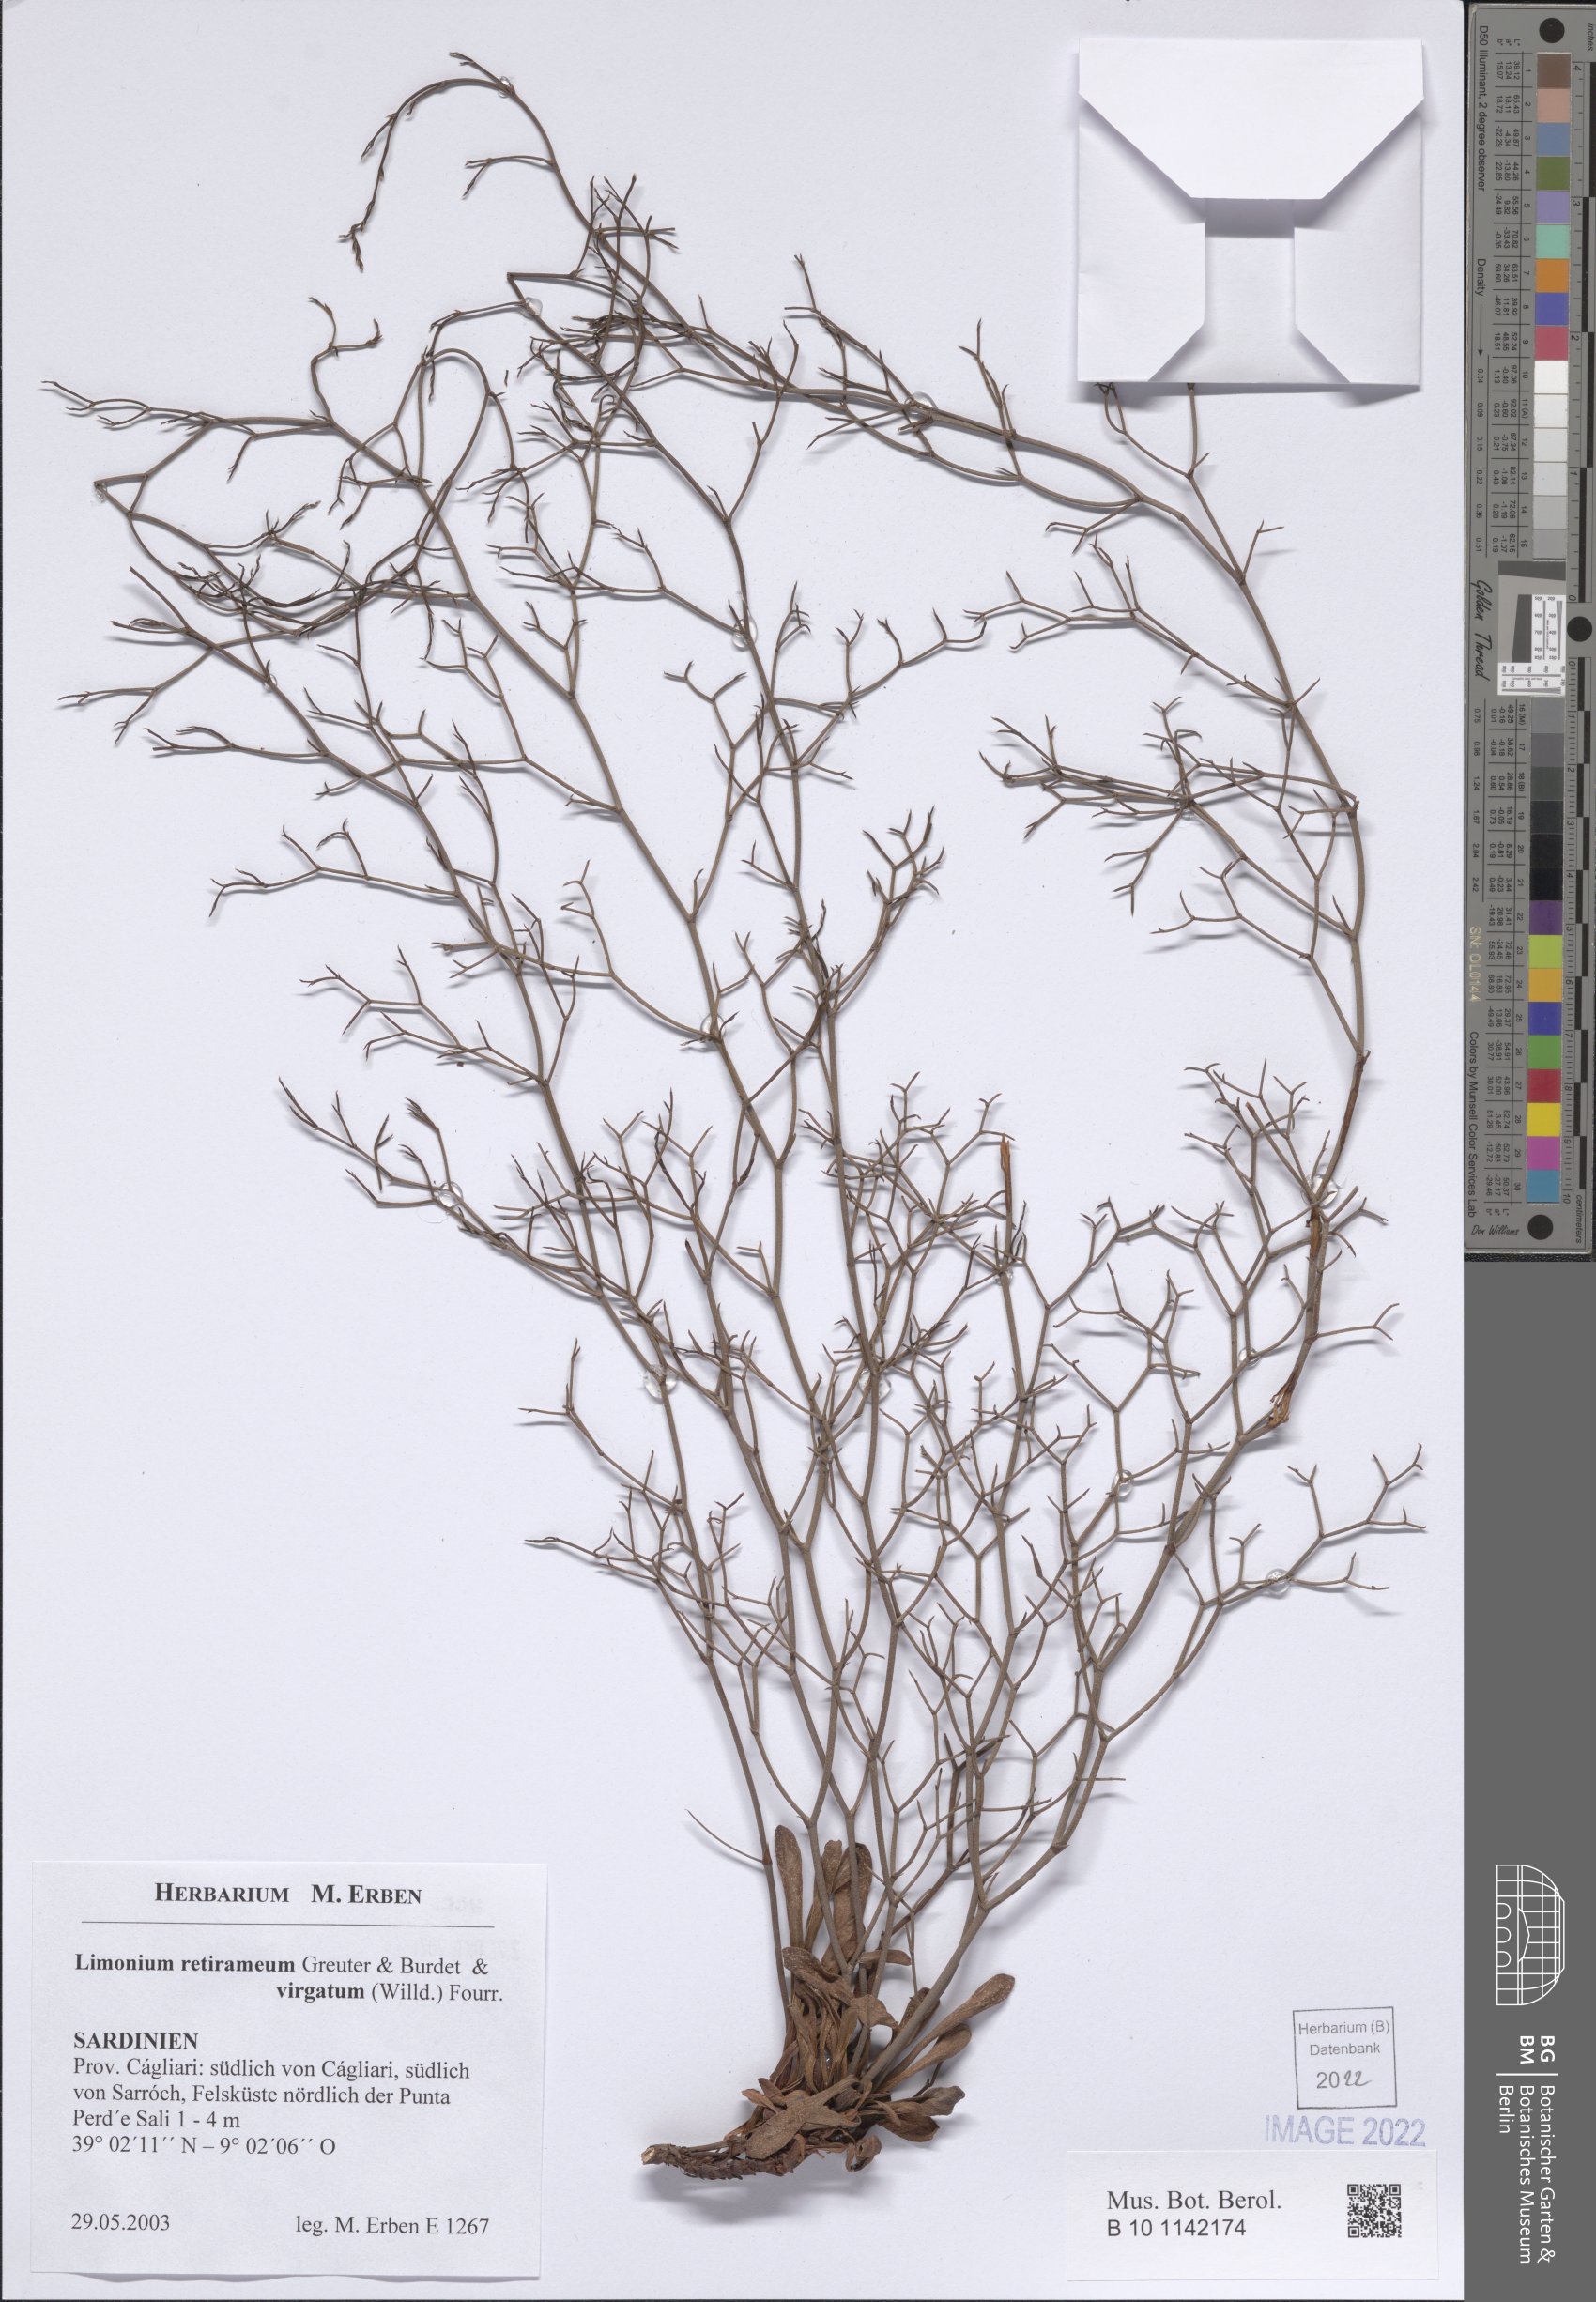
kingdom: Plantae
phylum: Tracheophyta
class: Magnoliopsida
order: Caryophyllales
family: Plumbaginaceae
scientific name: Plumbaginaceae
